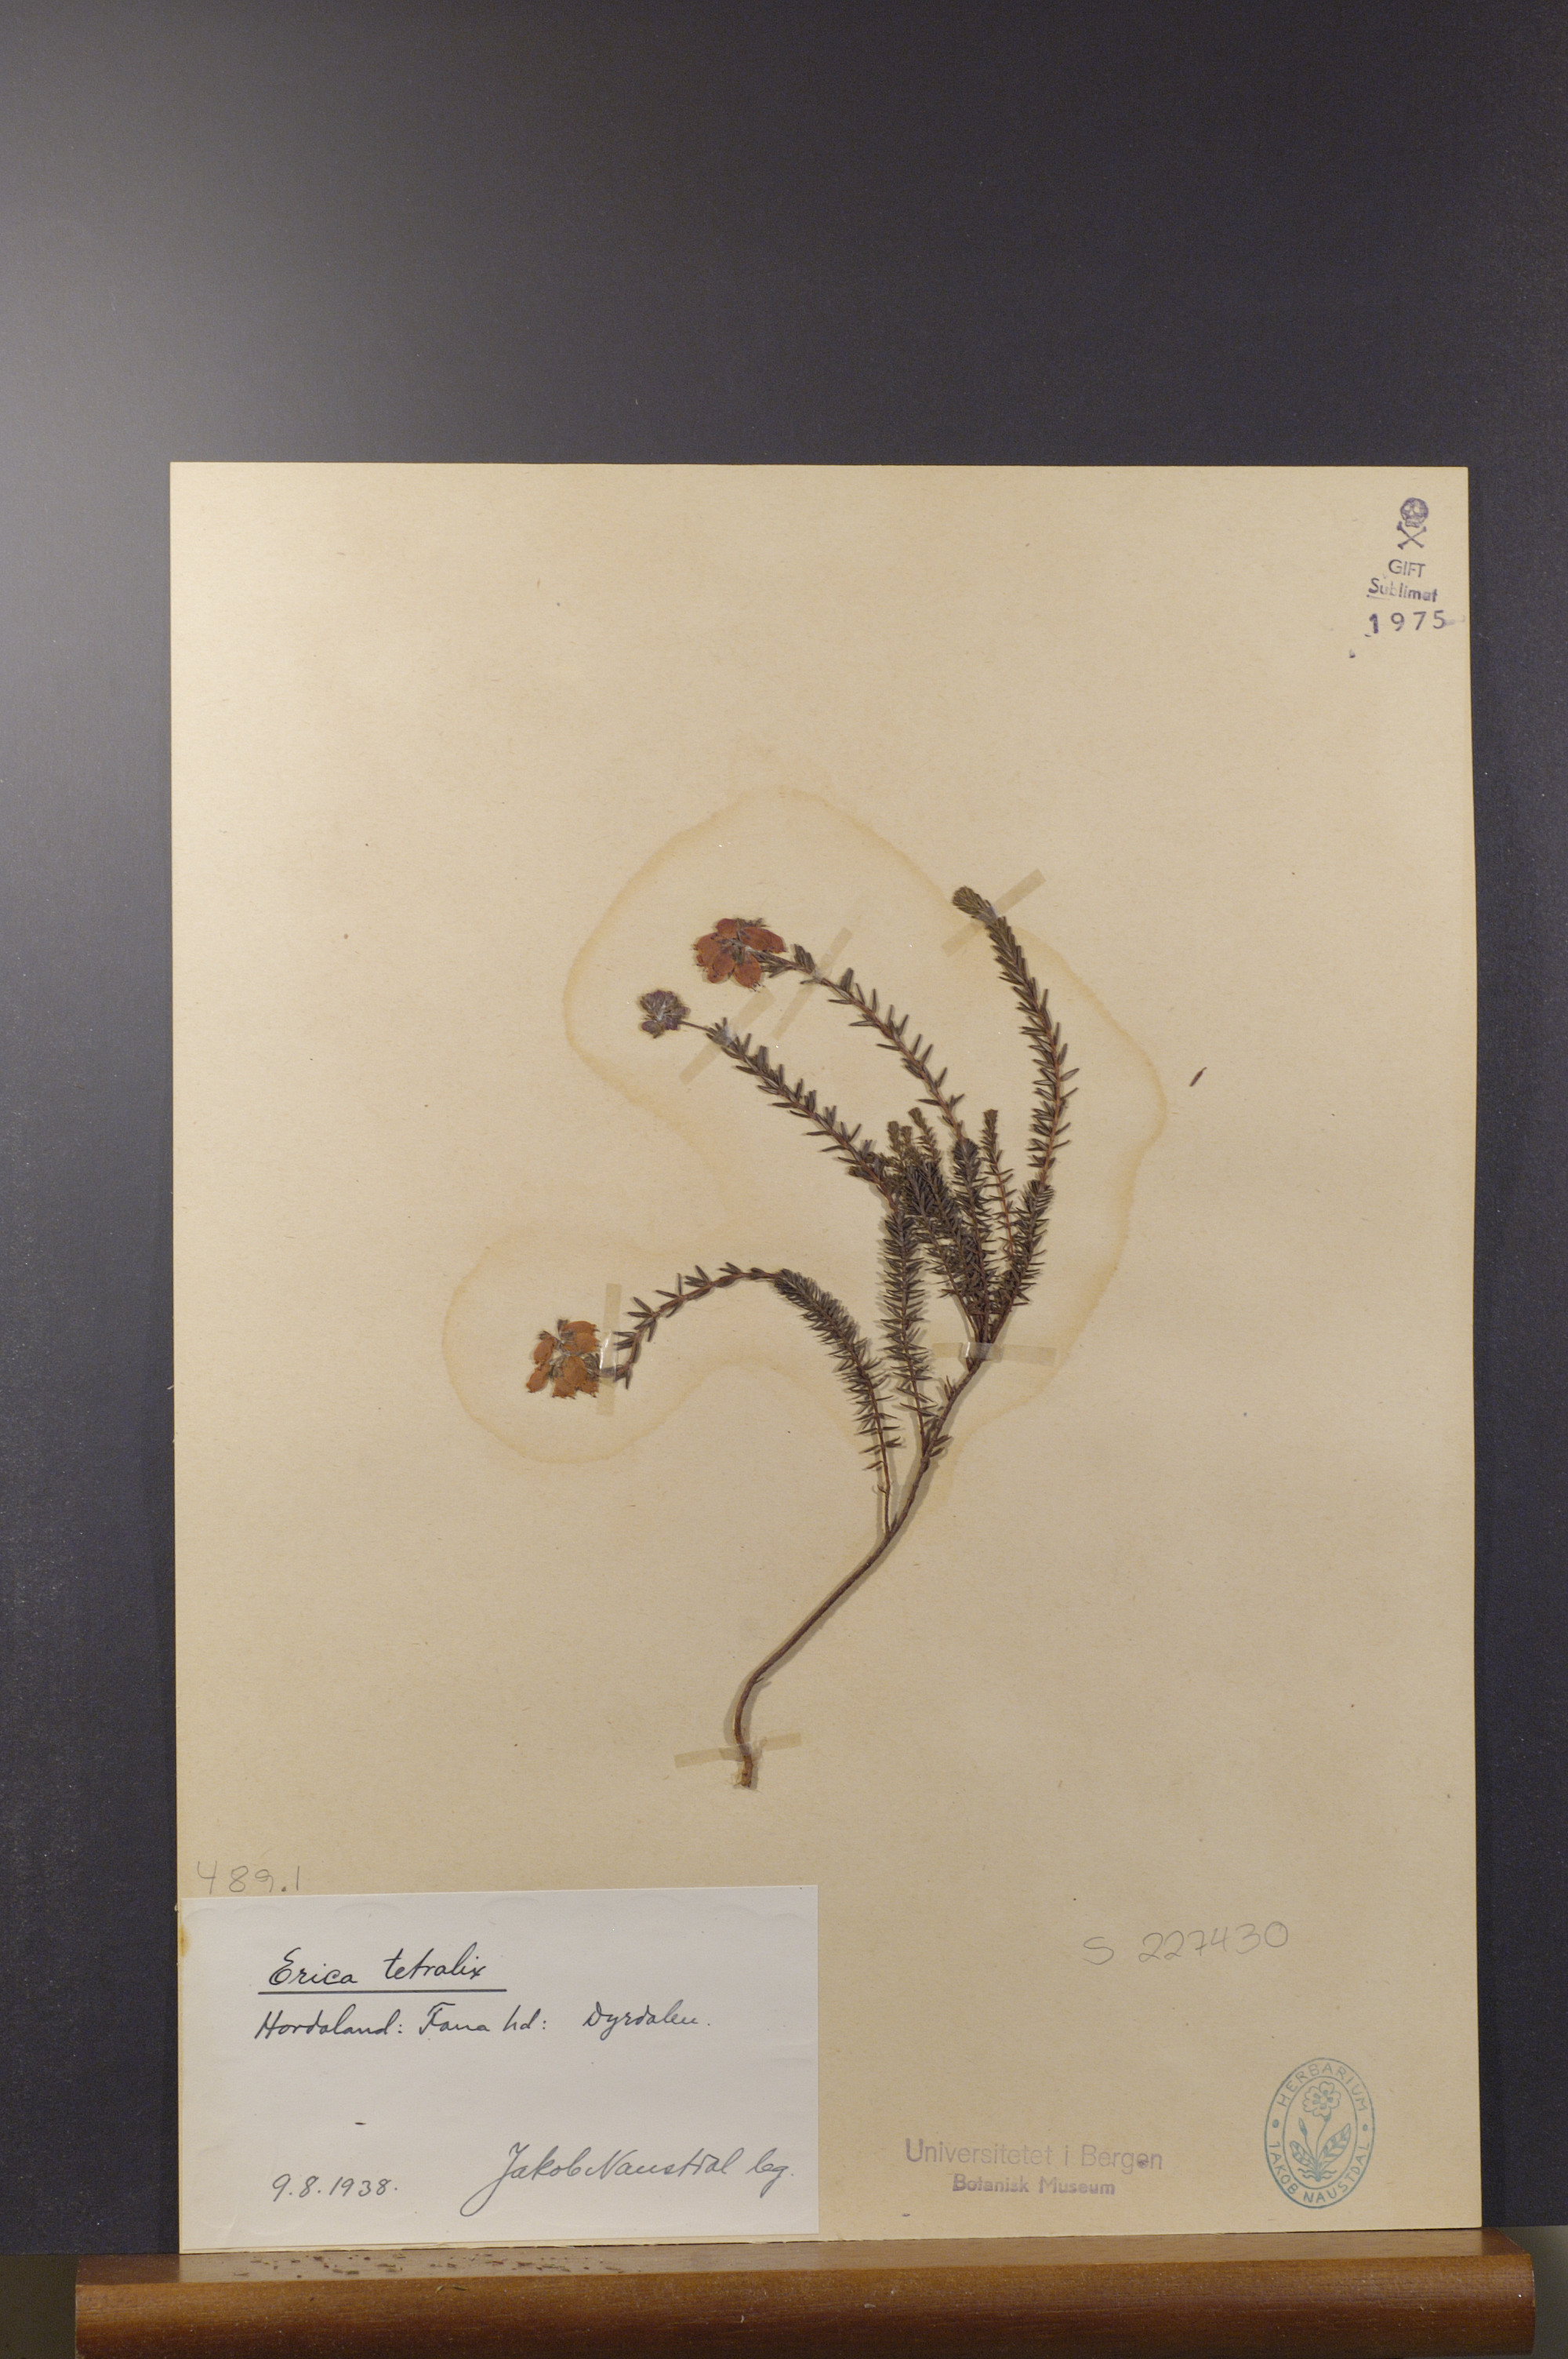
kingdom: Plantae
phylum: Tracheophyta
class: Magnoliopsida
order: Ericales
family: Ericaceae
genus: Erica
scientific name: Erica tetralix
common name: Cross-leaved heath
